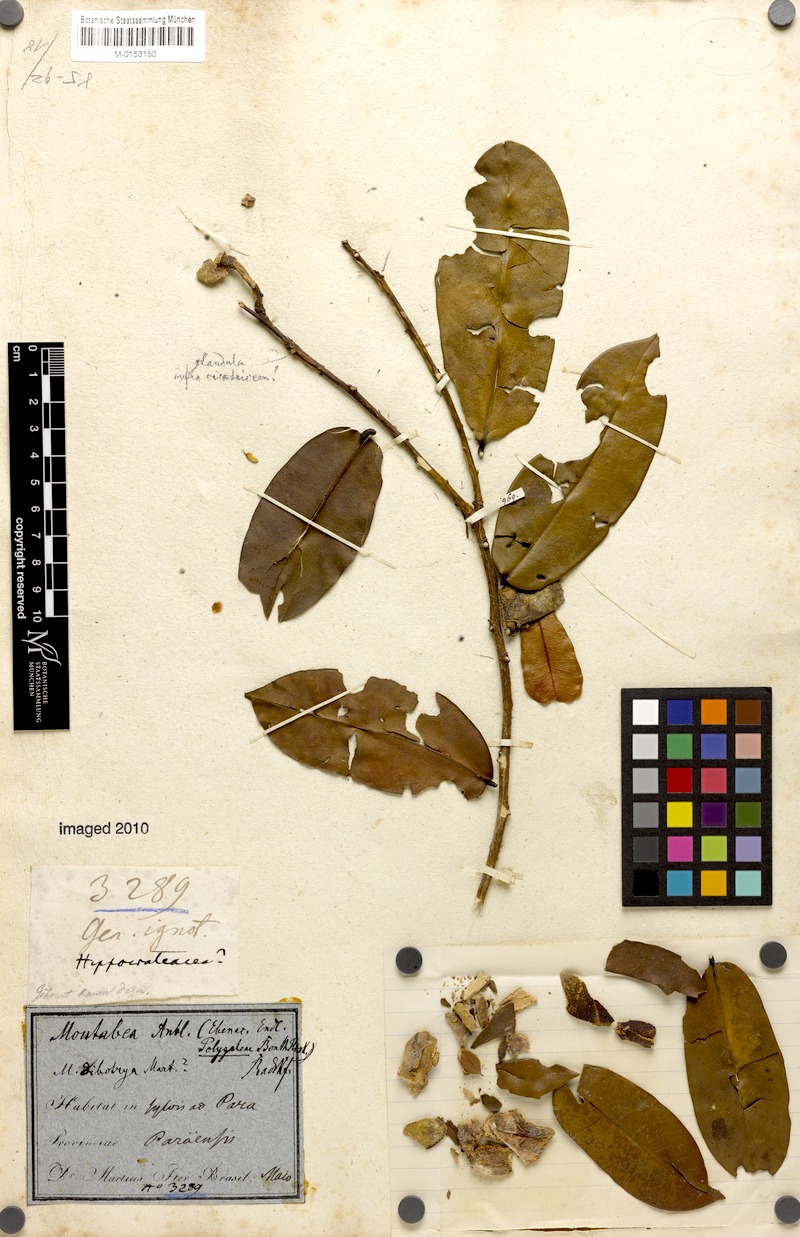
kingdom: Plantae
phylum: Tracheophyta
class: Magnoliopsida
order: Fabales
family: Polygalaceae
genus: Moutabea
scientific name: Moutabea aculeata
